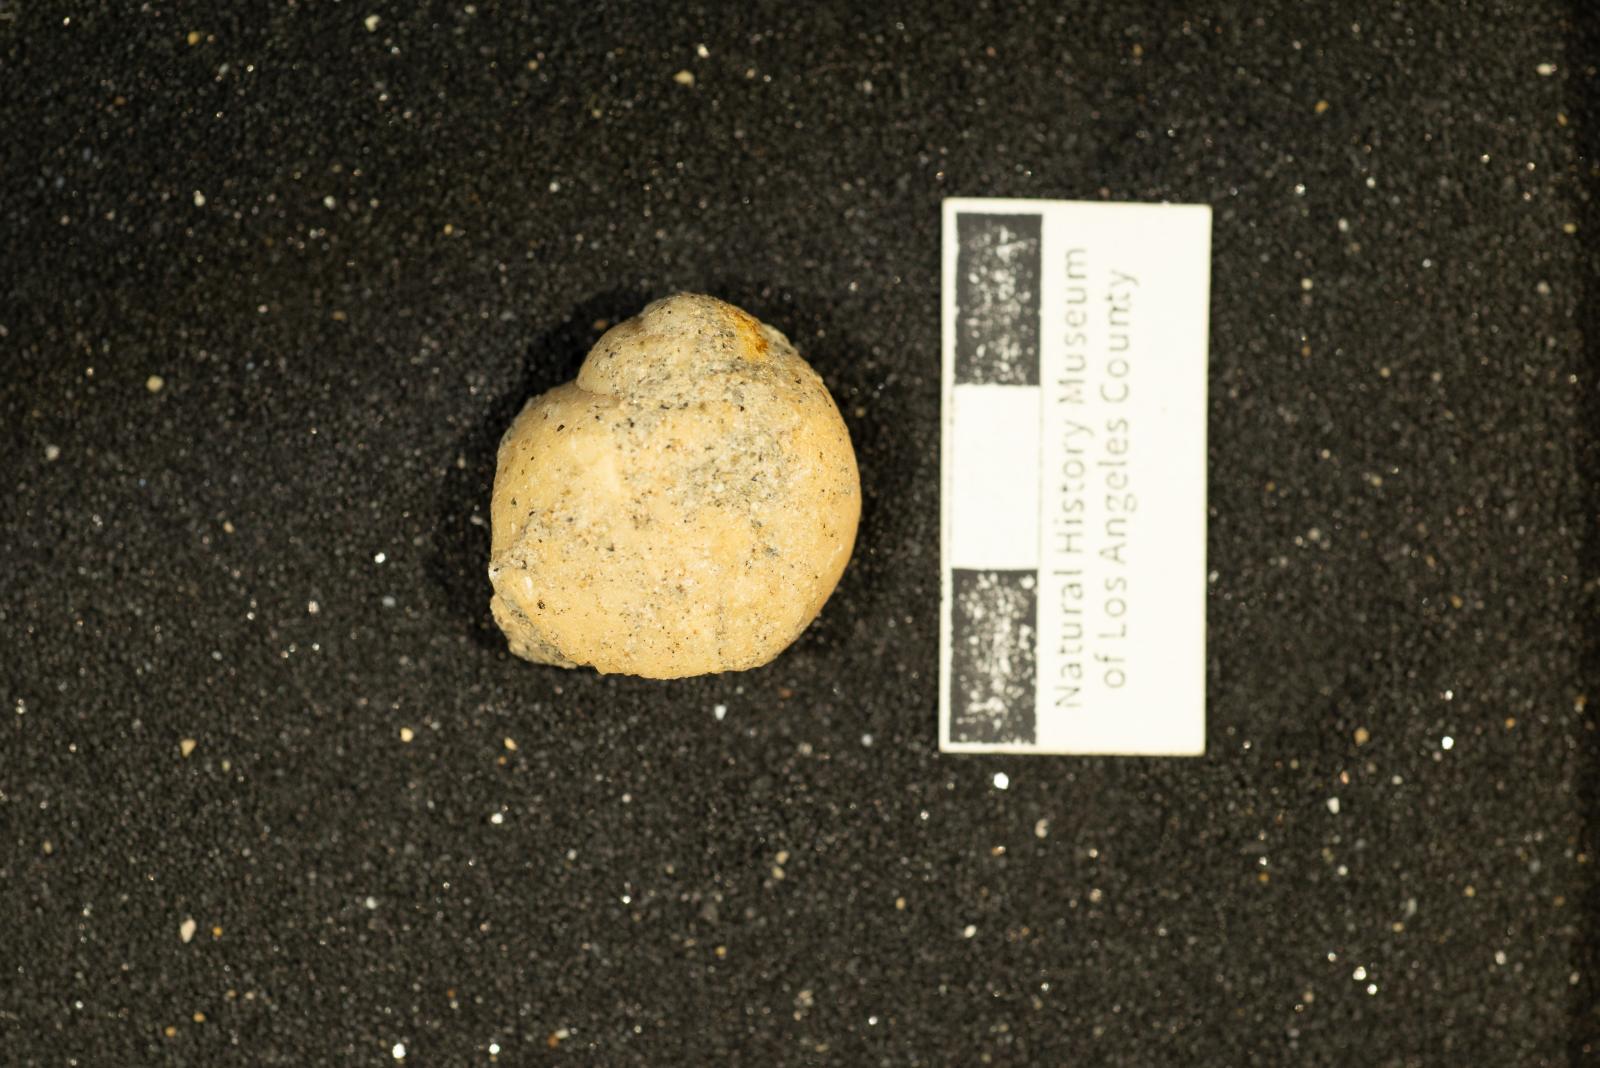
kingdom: Animalia
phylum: Mollusca
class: Gastropoda
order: Littorinimorpha
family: Naticidae
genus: Polinices
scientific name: Polinices Lunatia shumardiana
